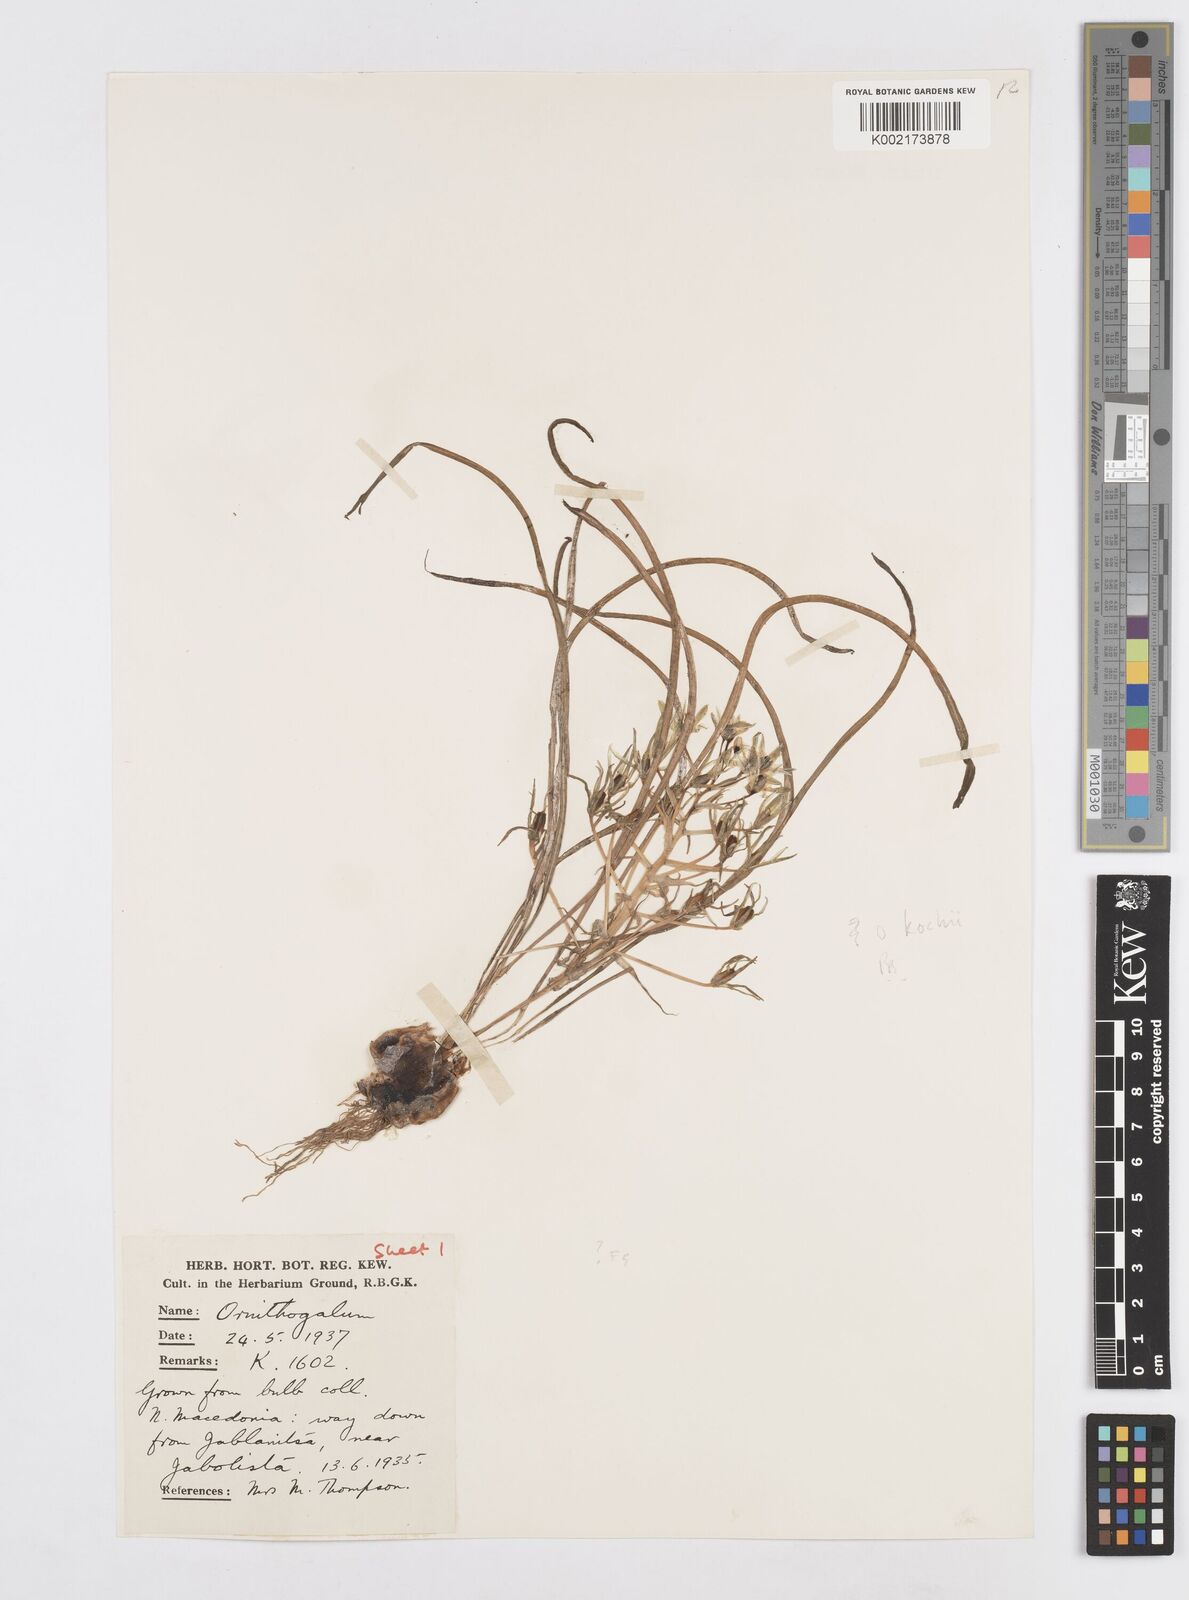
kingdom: Plantae
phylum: Tracheophyta
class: Liliopsida
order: Asparagales
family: Asparagaceae
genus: Ornithogalum
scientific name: Ornithogalum orthophyllum
